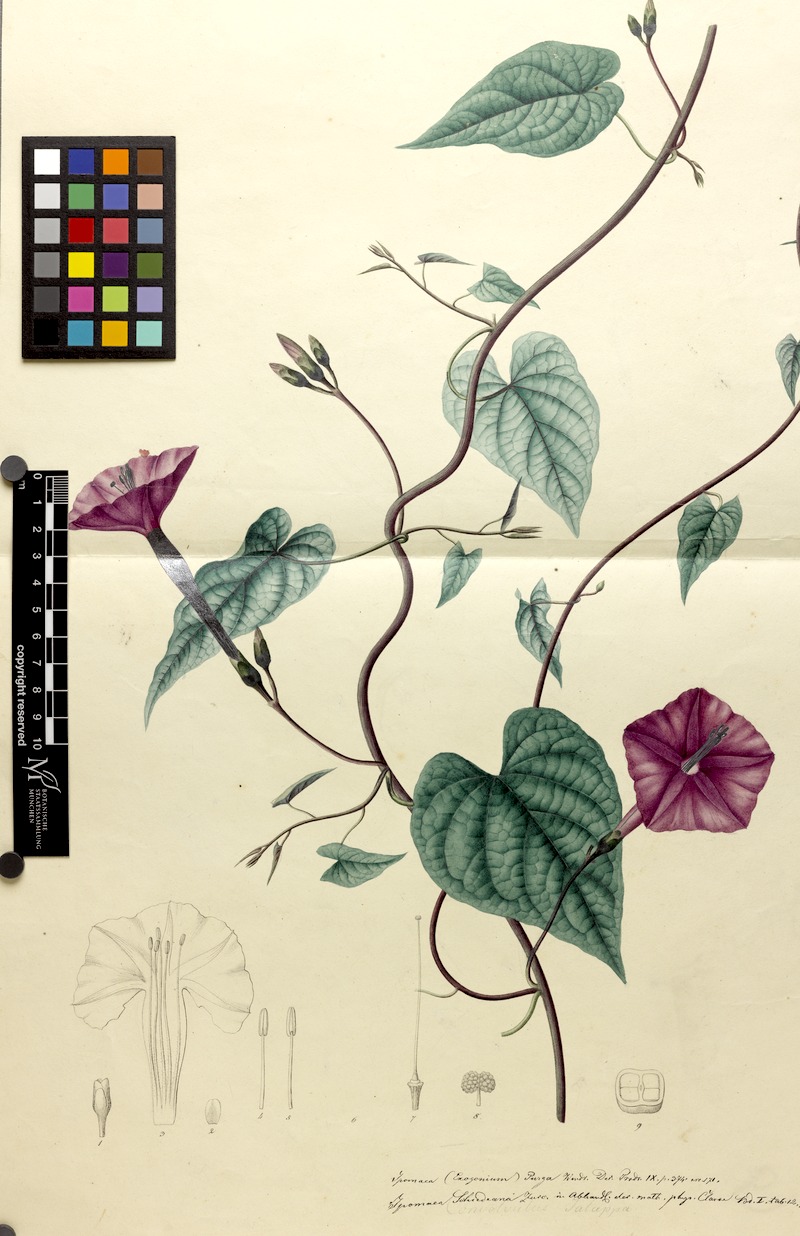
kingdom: Plantae
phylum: Tracheophyta
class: Magnoliopsida
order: Solanales
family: Convolvulaceae
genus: Ipomoea
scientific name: Ipomoea purga
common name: Jalap
